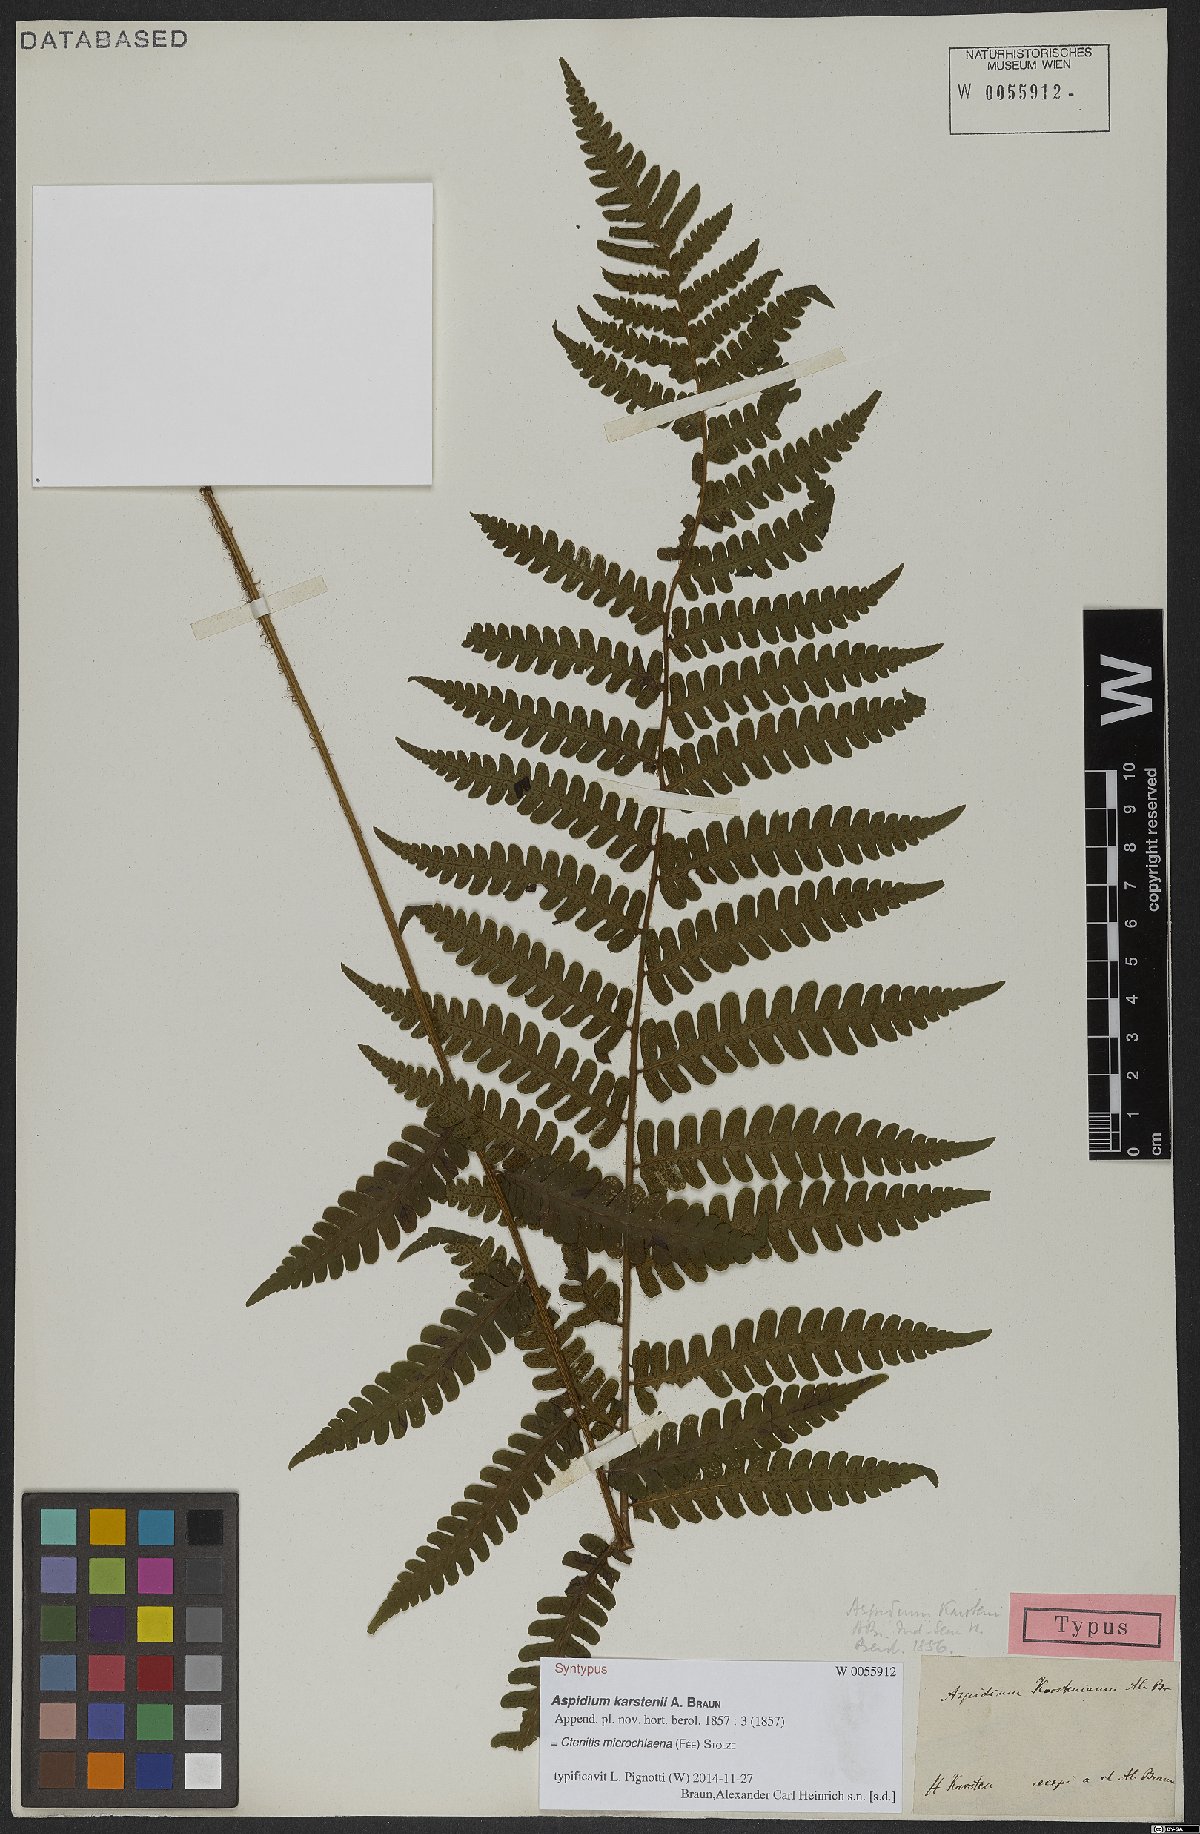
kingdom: Plantae
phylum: Tracheophyta
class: Polypodiopsida
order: Polypodiales
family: Dryopteridaceae
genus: Ctenitis
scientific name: Ctenitis microchlaena
